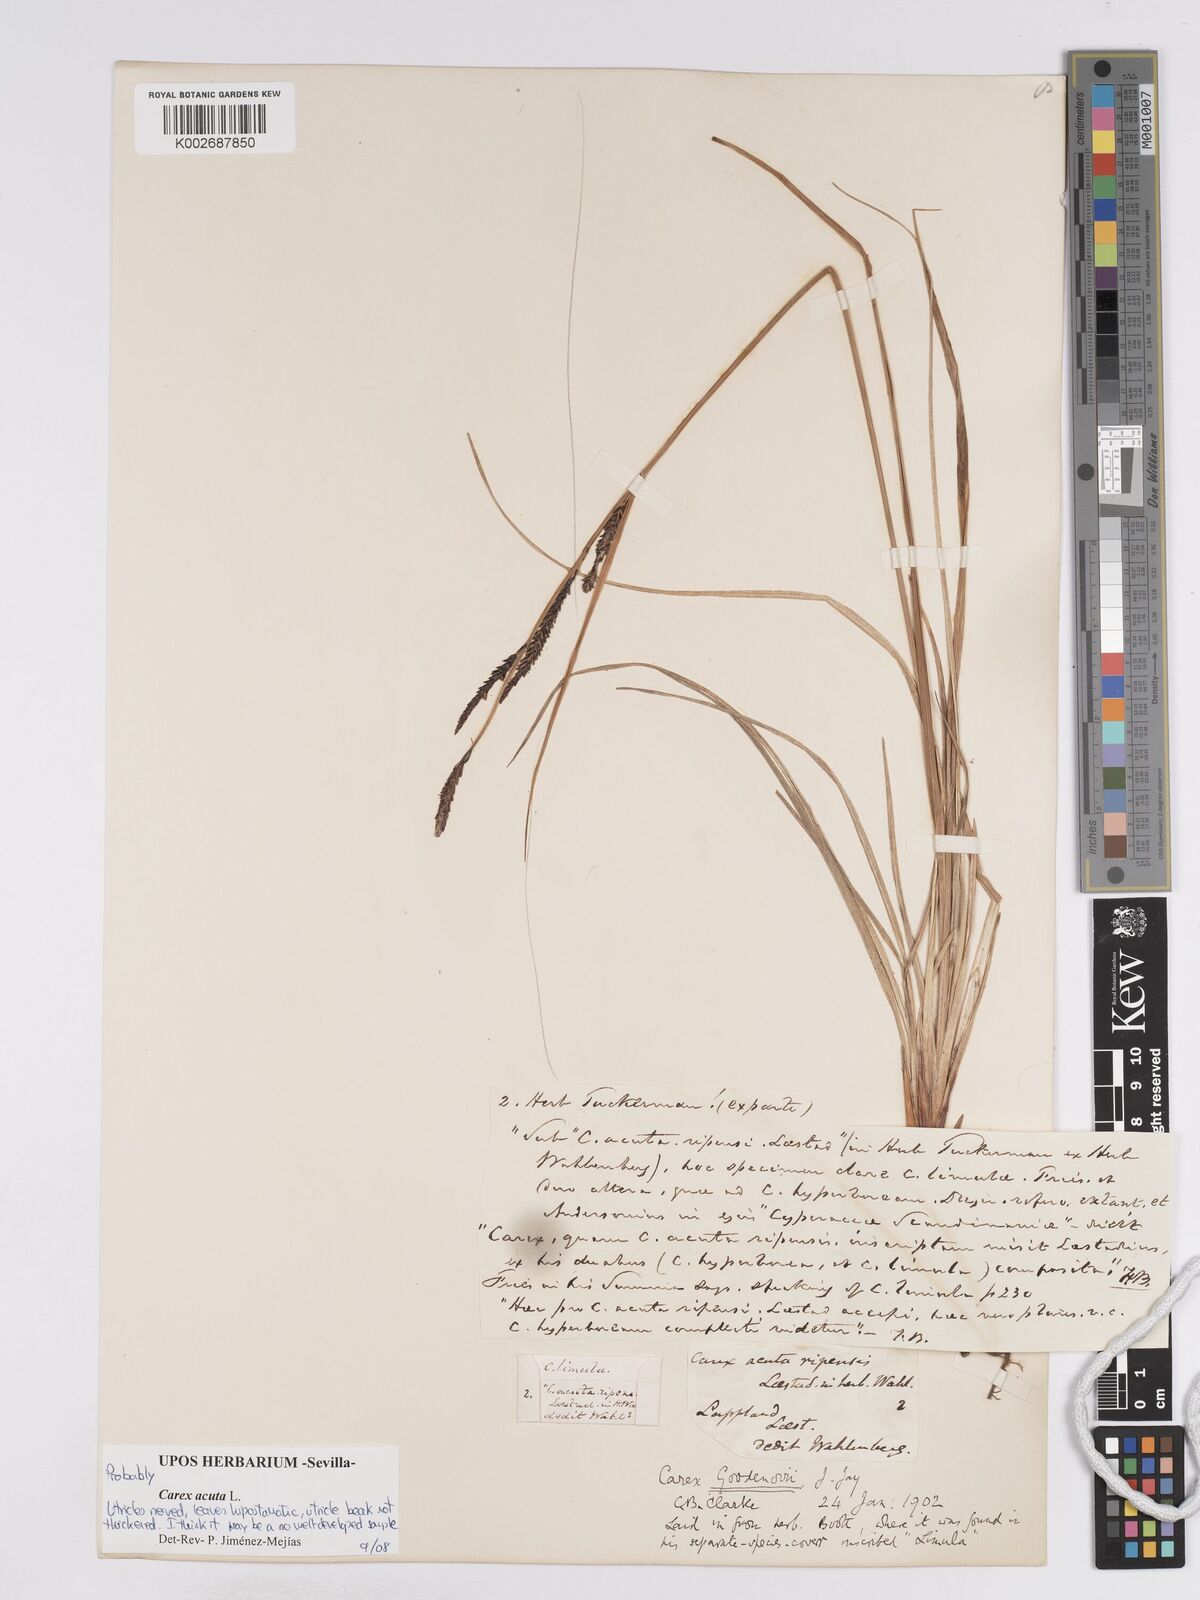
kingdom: Plantae
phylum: Tracheophyta
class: Liliopsida
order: Poales
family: Cyperaceae
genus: Carex
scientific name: Carex acuta
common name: Slender tufted-sedge
